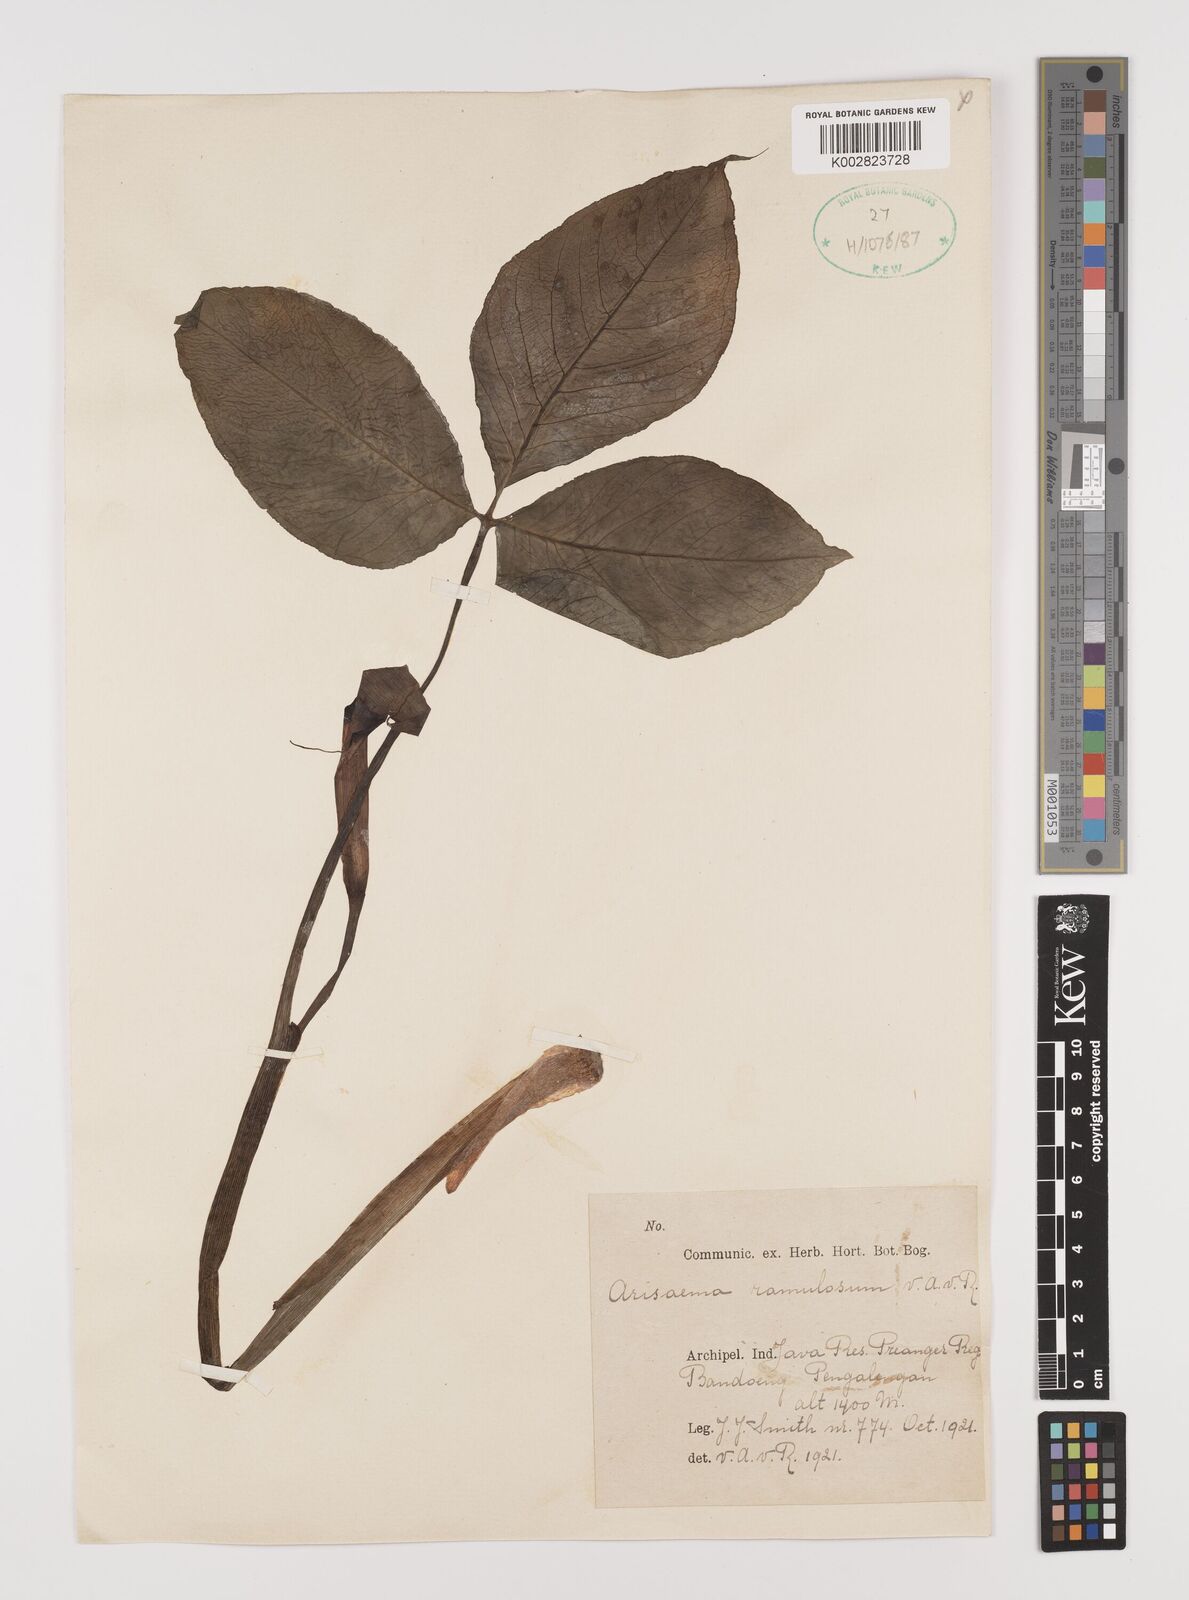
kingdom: Plantae
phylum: Tracheophyta
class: Liliopsida
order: Alismatales
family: Araceae
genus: Arisaema
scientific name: Arisaema ramulosum
